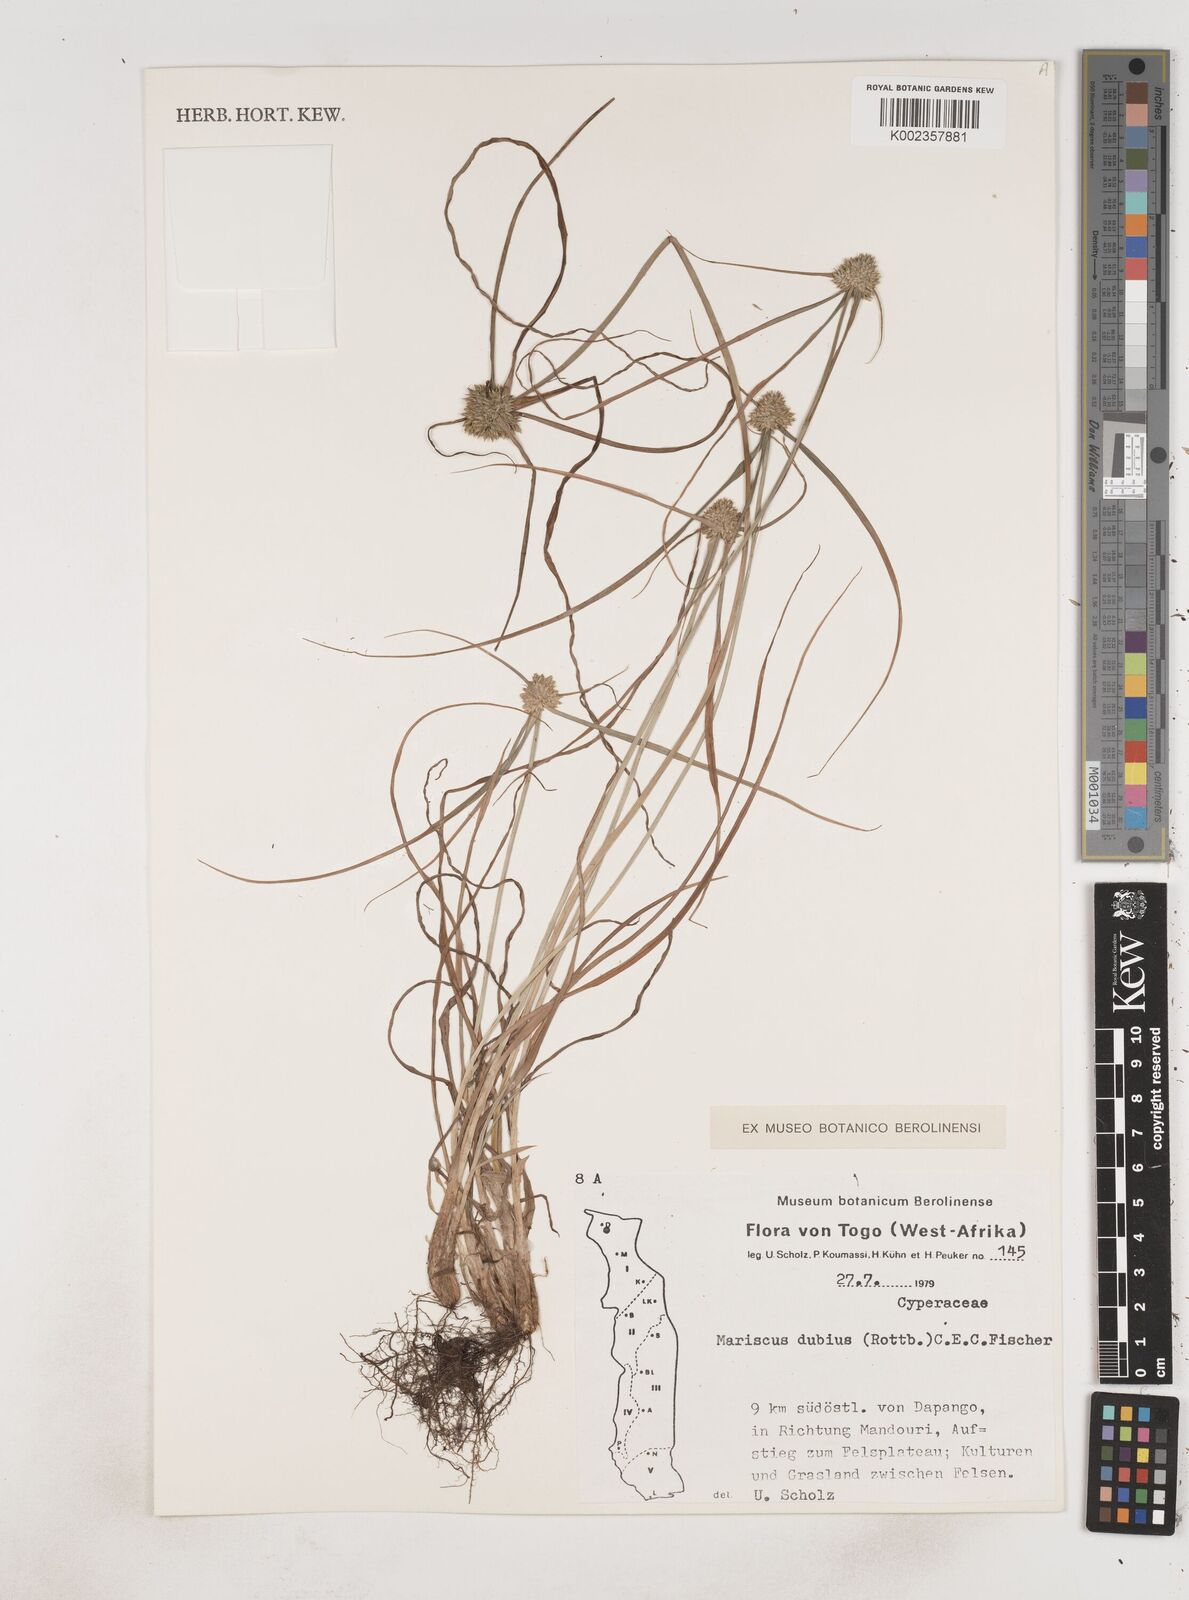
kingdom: Plantae
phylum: Tracheophyta
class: Liliopsida
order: Poales
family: Cyperaceae
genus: Cyperus
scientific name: Cyperus dubius
